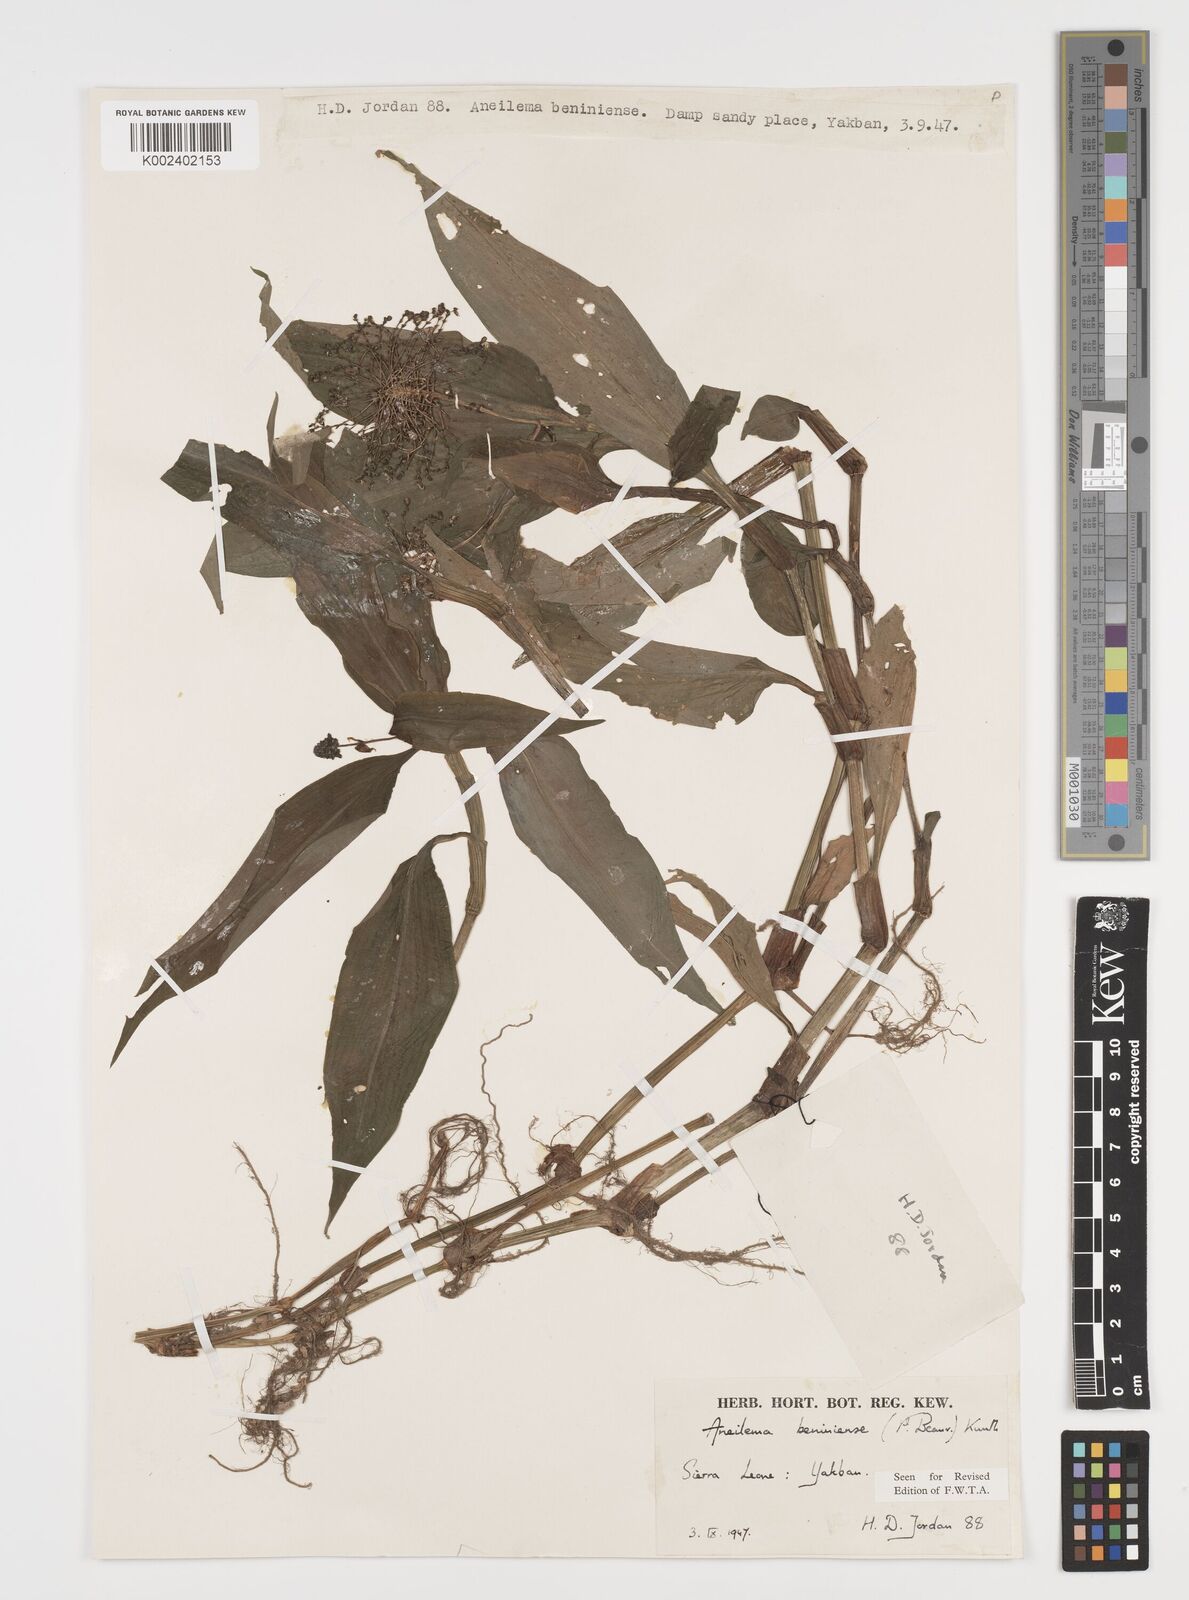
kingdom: Plantae
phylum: Tracheophyta
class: Liliopsida
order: Commelinales
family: Commelinaceae
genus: Aneilema
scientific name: Aneilema beniniense
